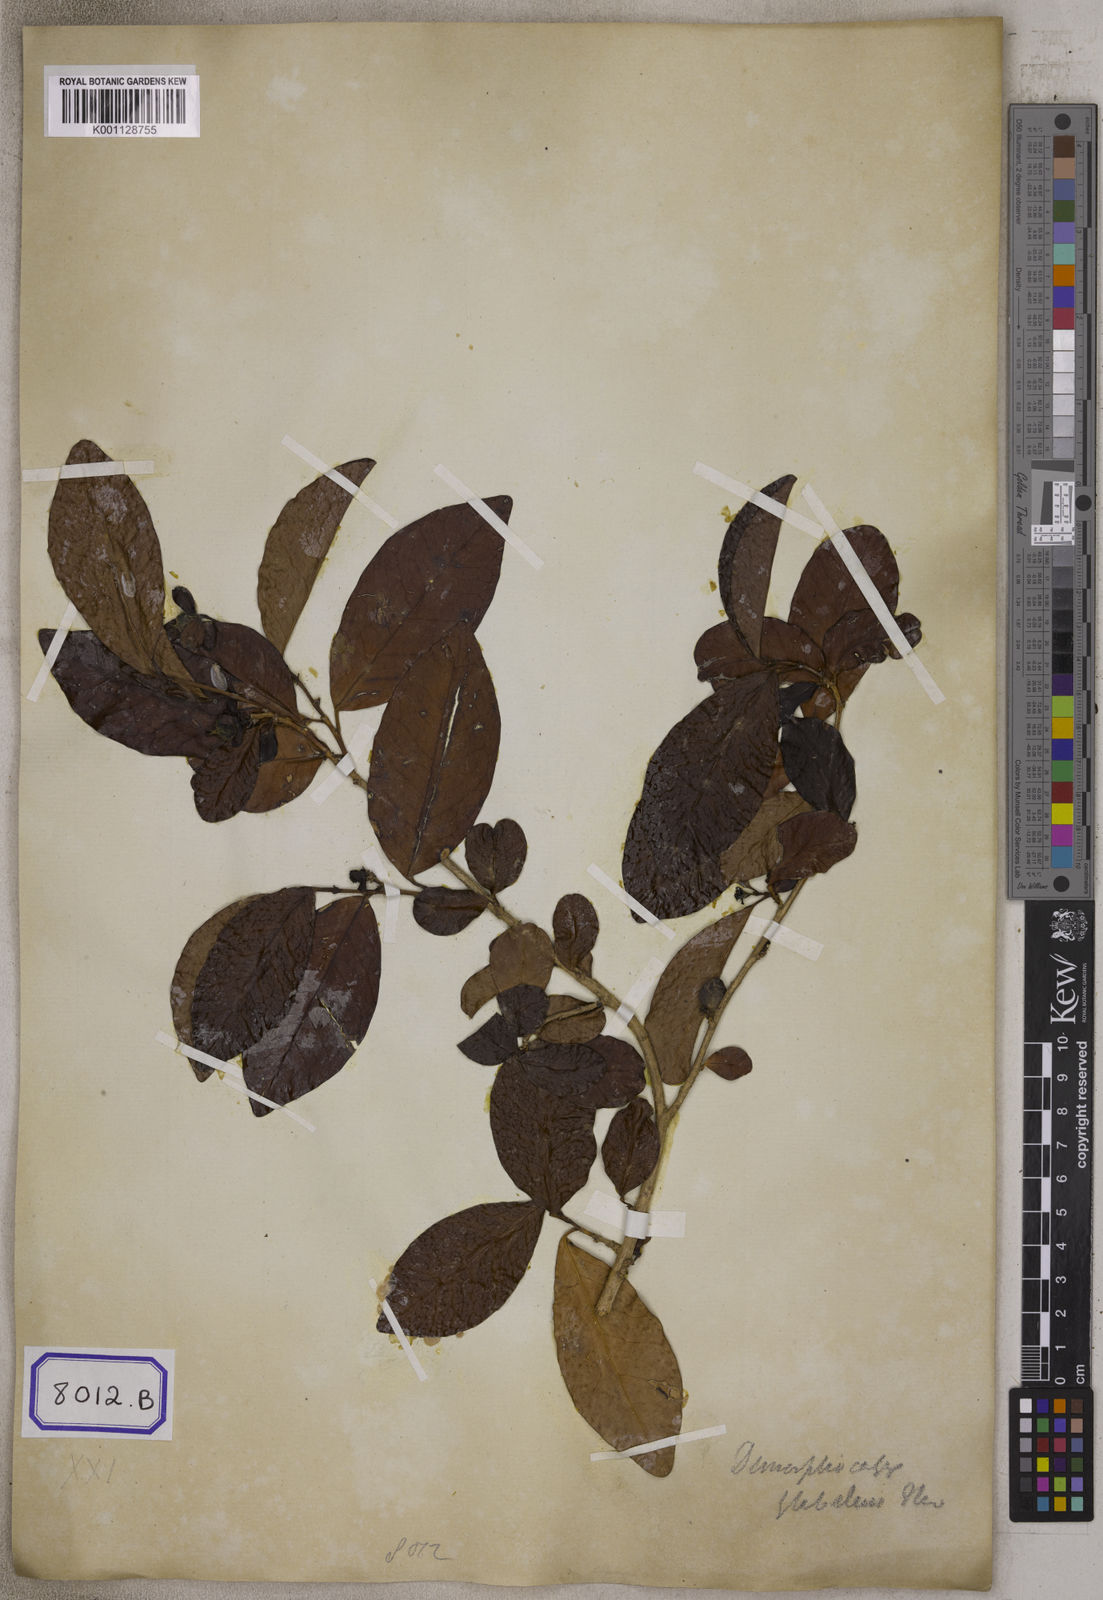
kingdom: Plantae
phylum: Tracheophyta
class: Magnoliopsida
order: Malpighiales
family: Euphorbiaceae
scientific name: Euphorbiaceae
